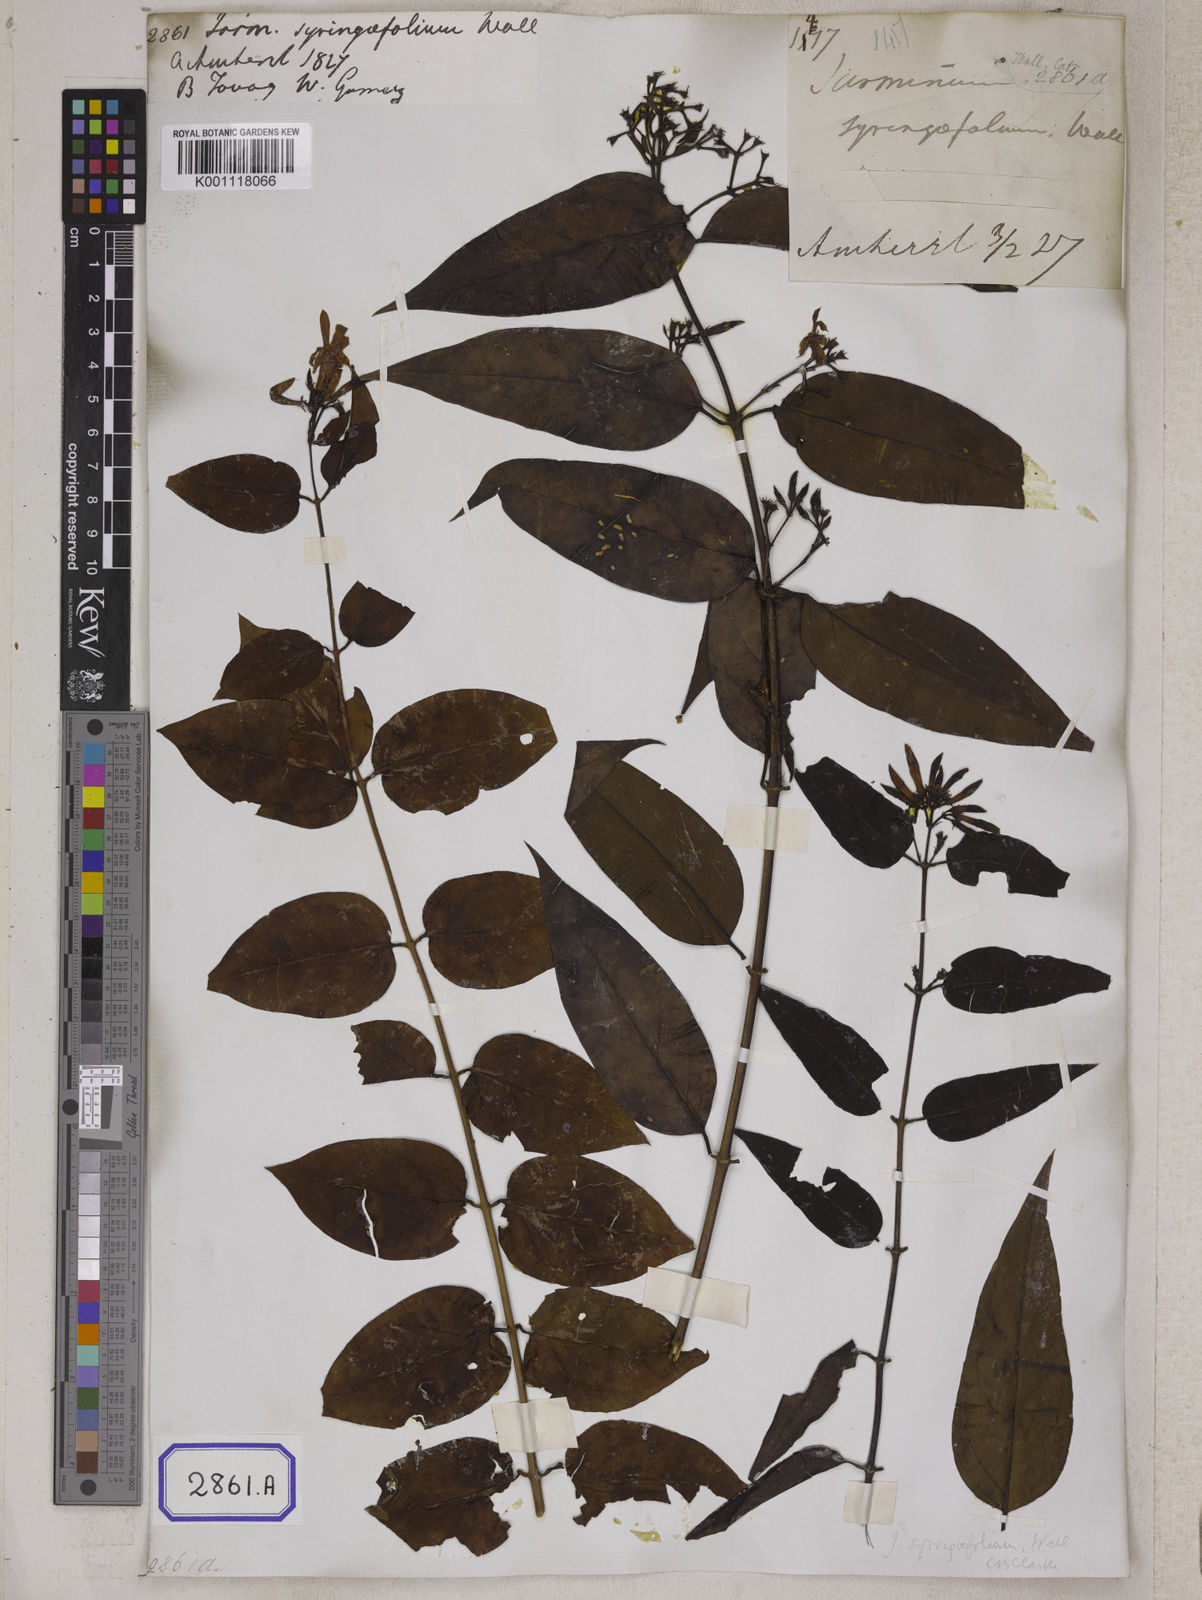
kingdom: Plantae
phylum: Tracheophyta
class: Magnoliopsida
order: Lamiales
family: Oleaceae
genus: Jasminum
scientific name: Jasminum
